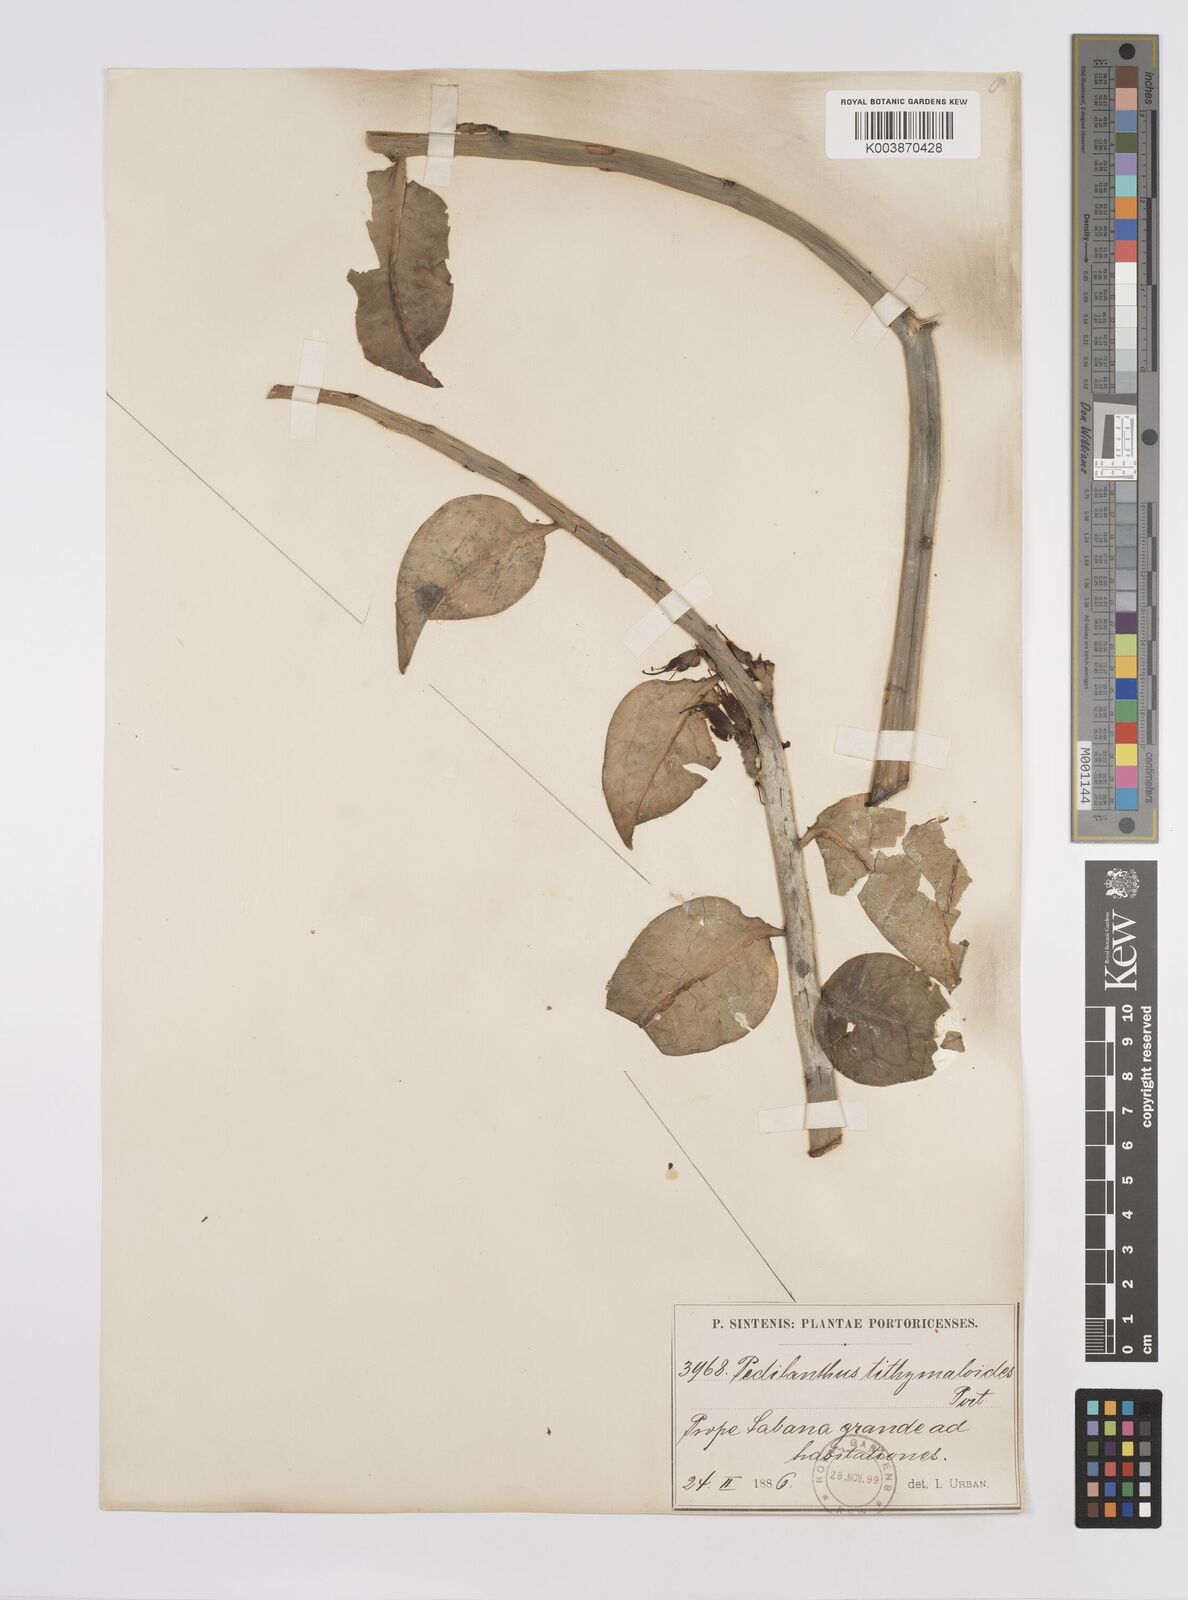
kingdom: Plantae
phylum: Tracheophyta
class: Magnoliopsida
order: Malpighiales
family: Euphorbiaceae
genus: Euphorbia
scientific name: Euphorbia tithymaloides
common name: Slipperplant
